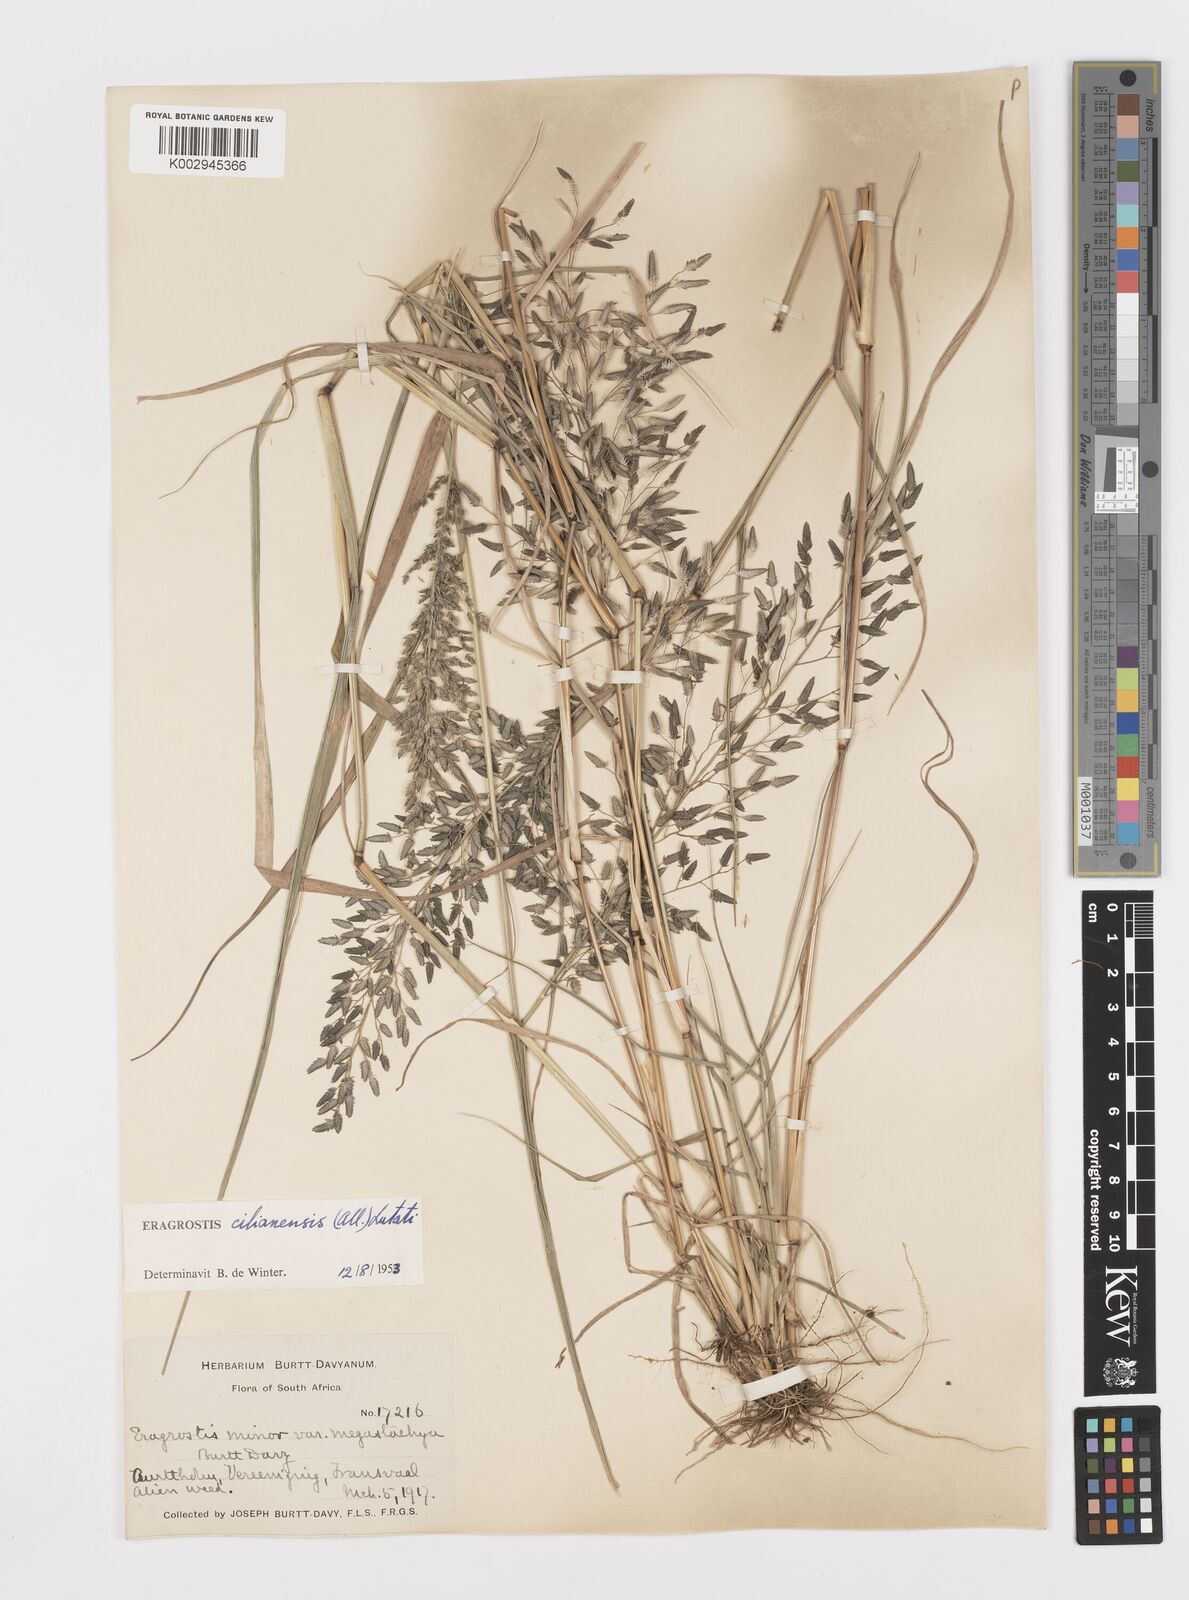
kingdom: Plantae
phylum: Tracheophyta
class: Liliopsida
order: Poales
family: Poaceae
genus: Eragrostis
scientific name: Eragrostis cilianensis
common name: Stinkgrass
